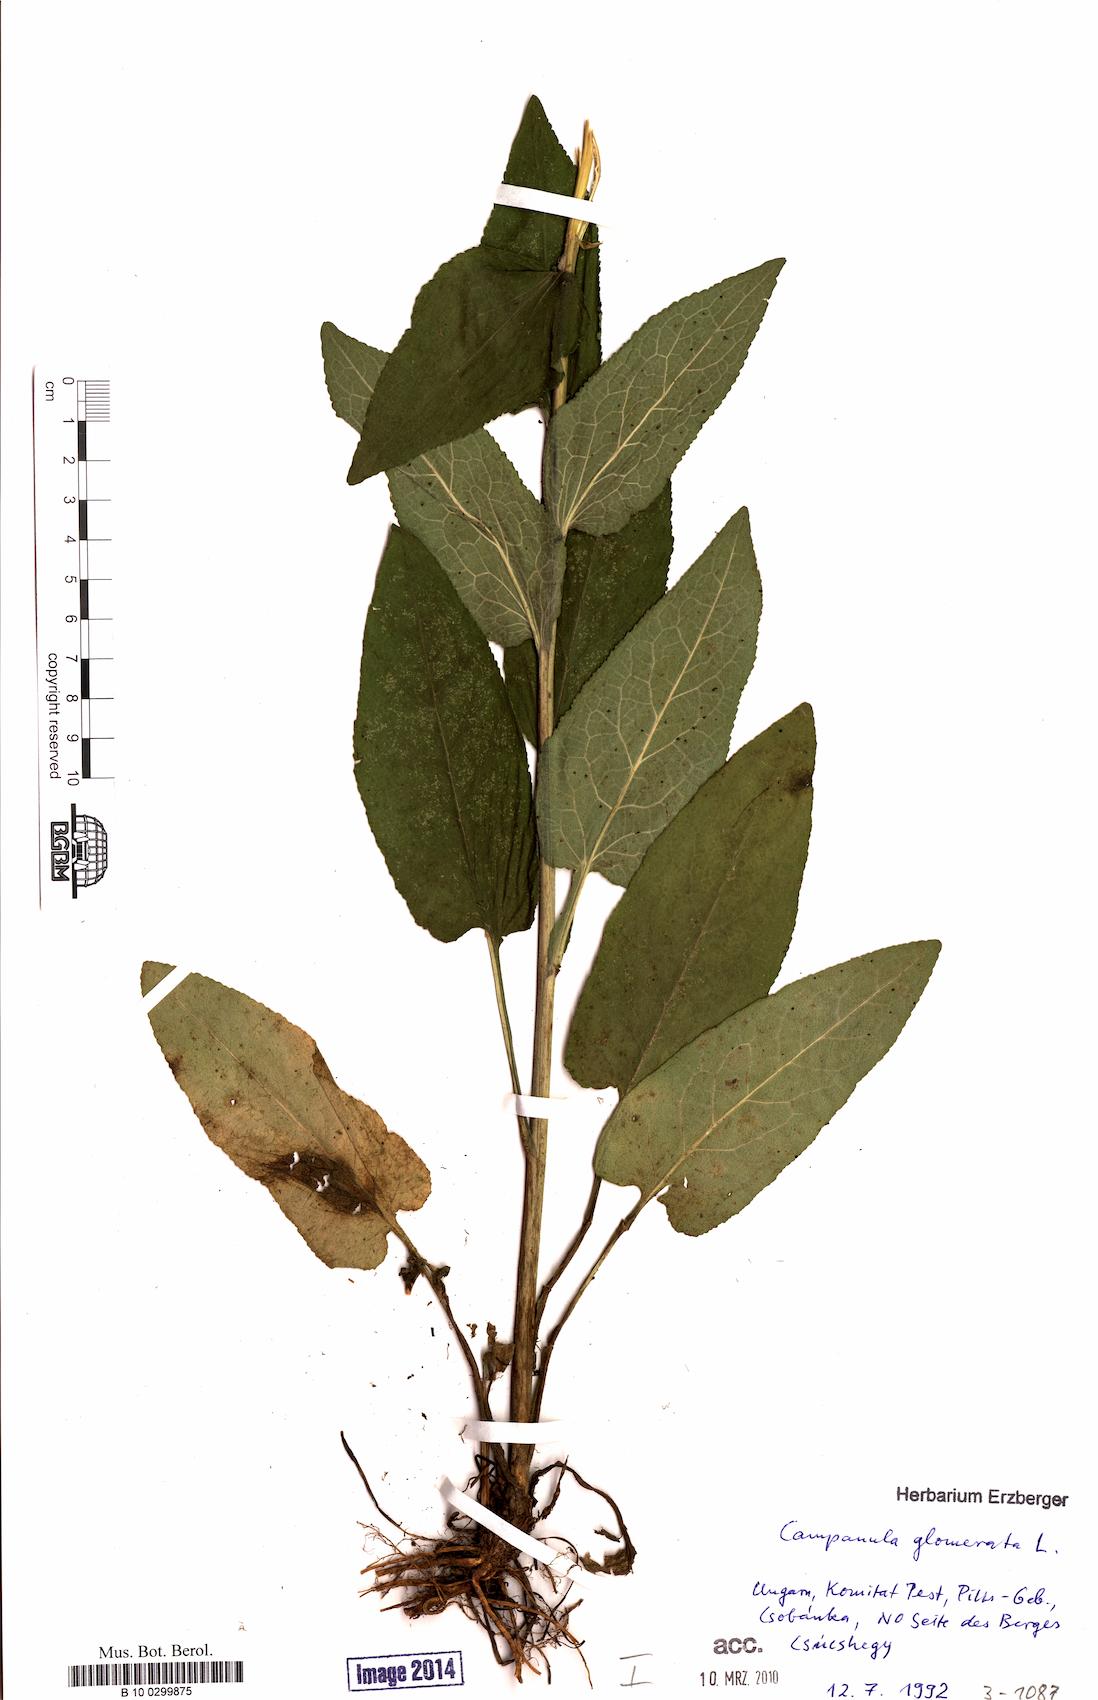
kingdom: Plantae
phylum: Tracheophyta
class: Magnoliopsida
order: Asterales
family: Campanulaceae
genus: Campanula
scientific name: Campanula glomerata
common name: Clustered bellflower
